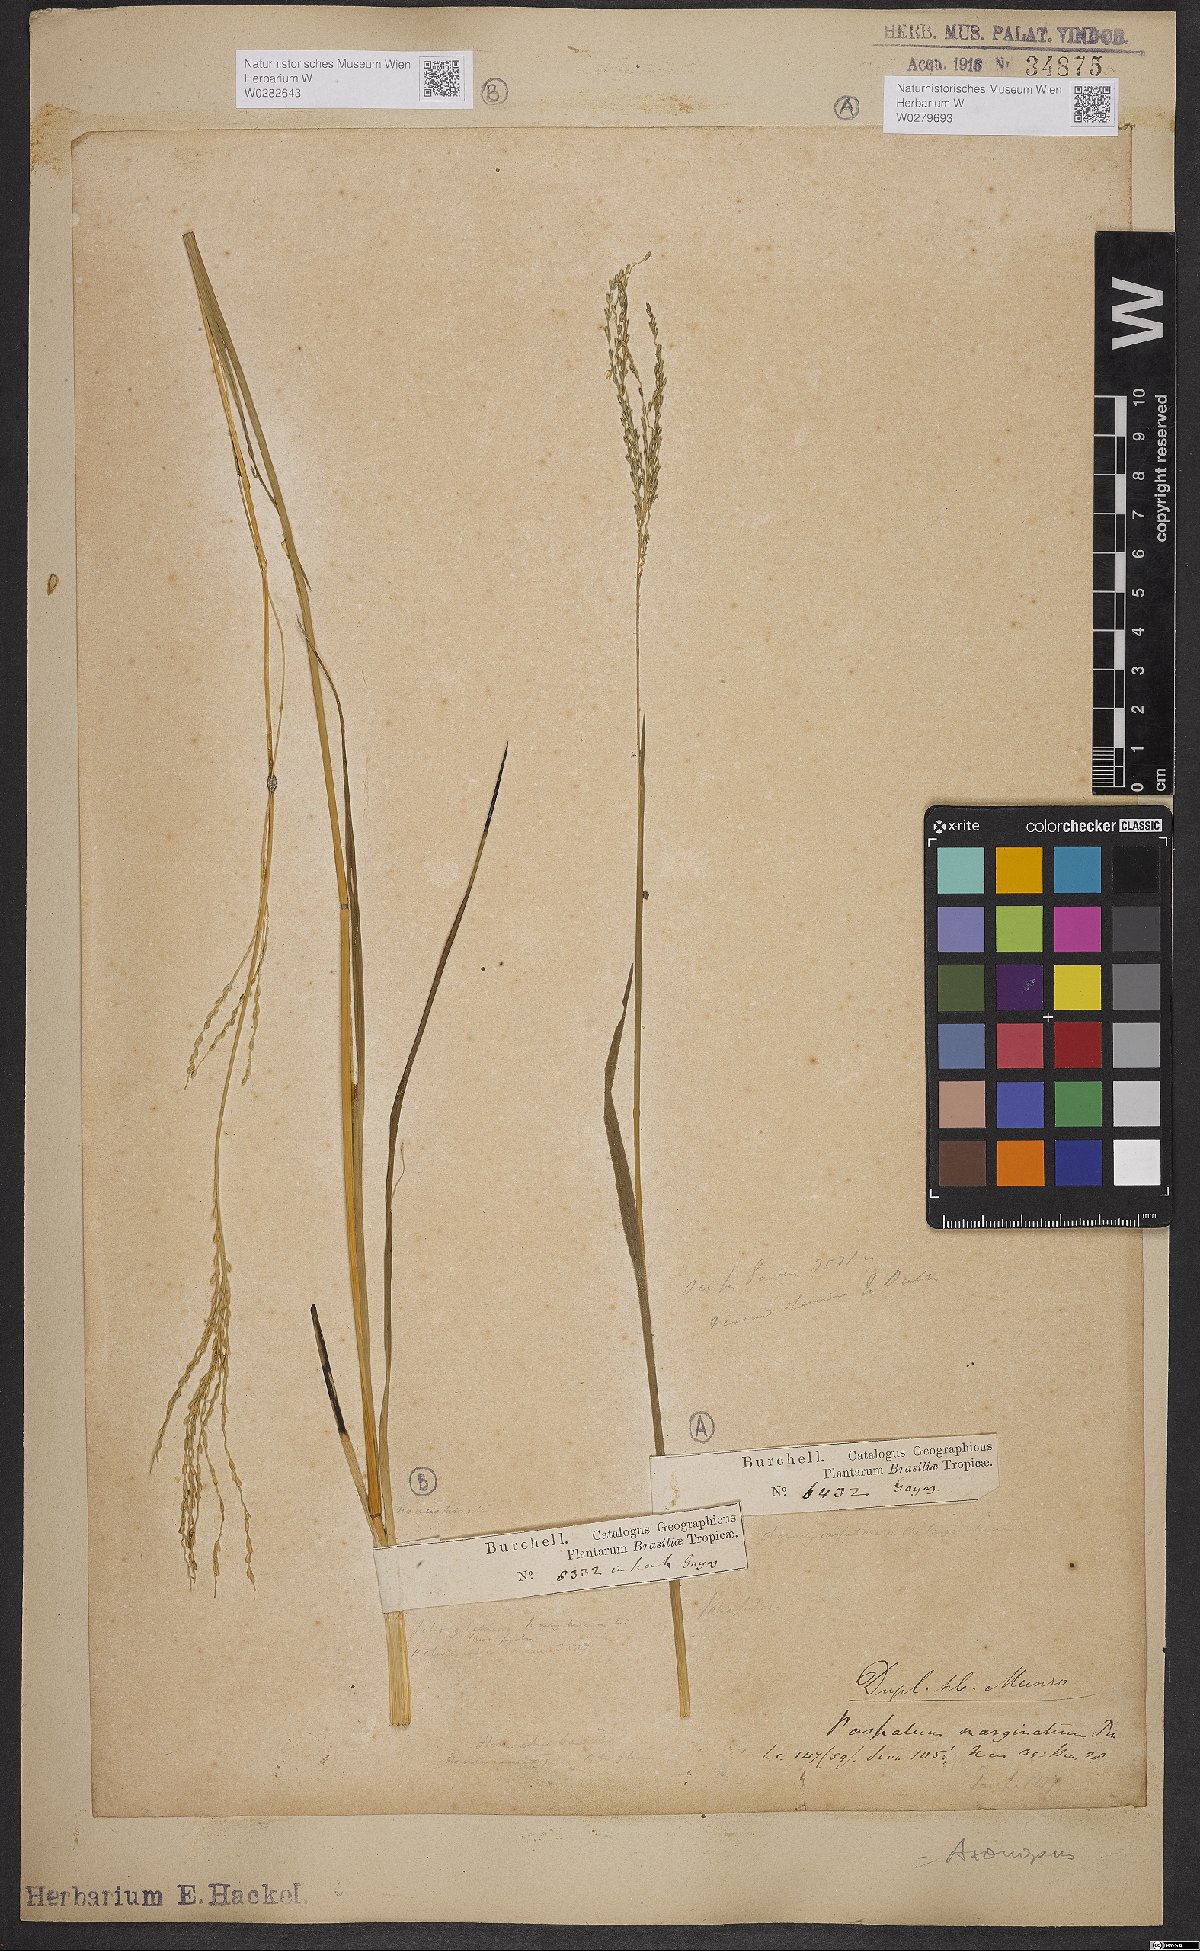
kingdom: Plantae
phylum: Tracheophyta
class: Liliopsida
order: Poales
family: Poaceae
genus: Axonopus
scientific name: Axonopus marginatus
